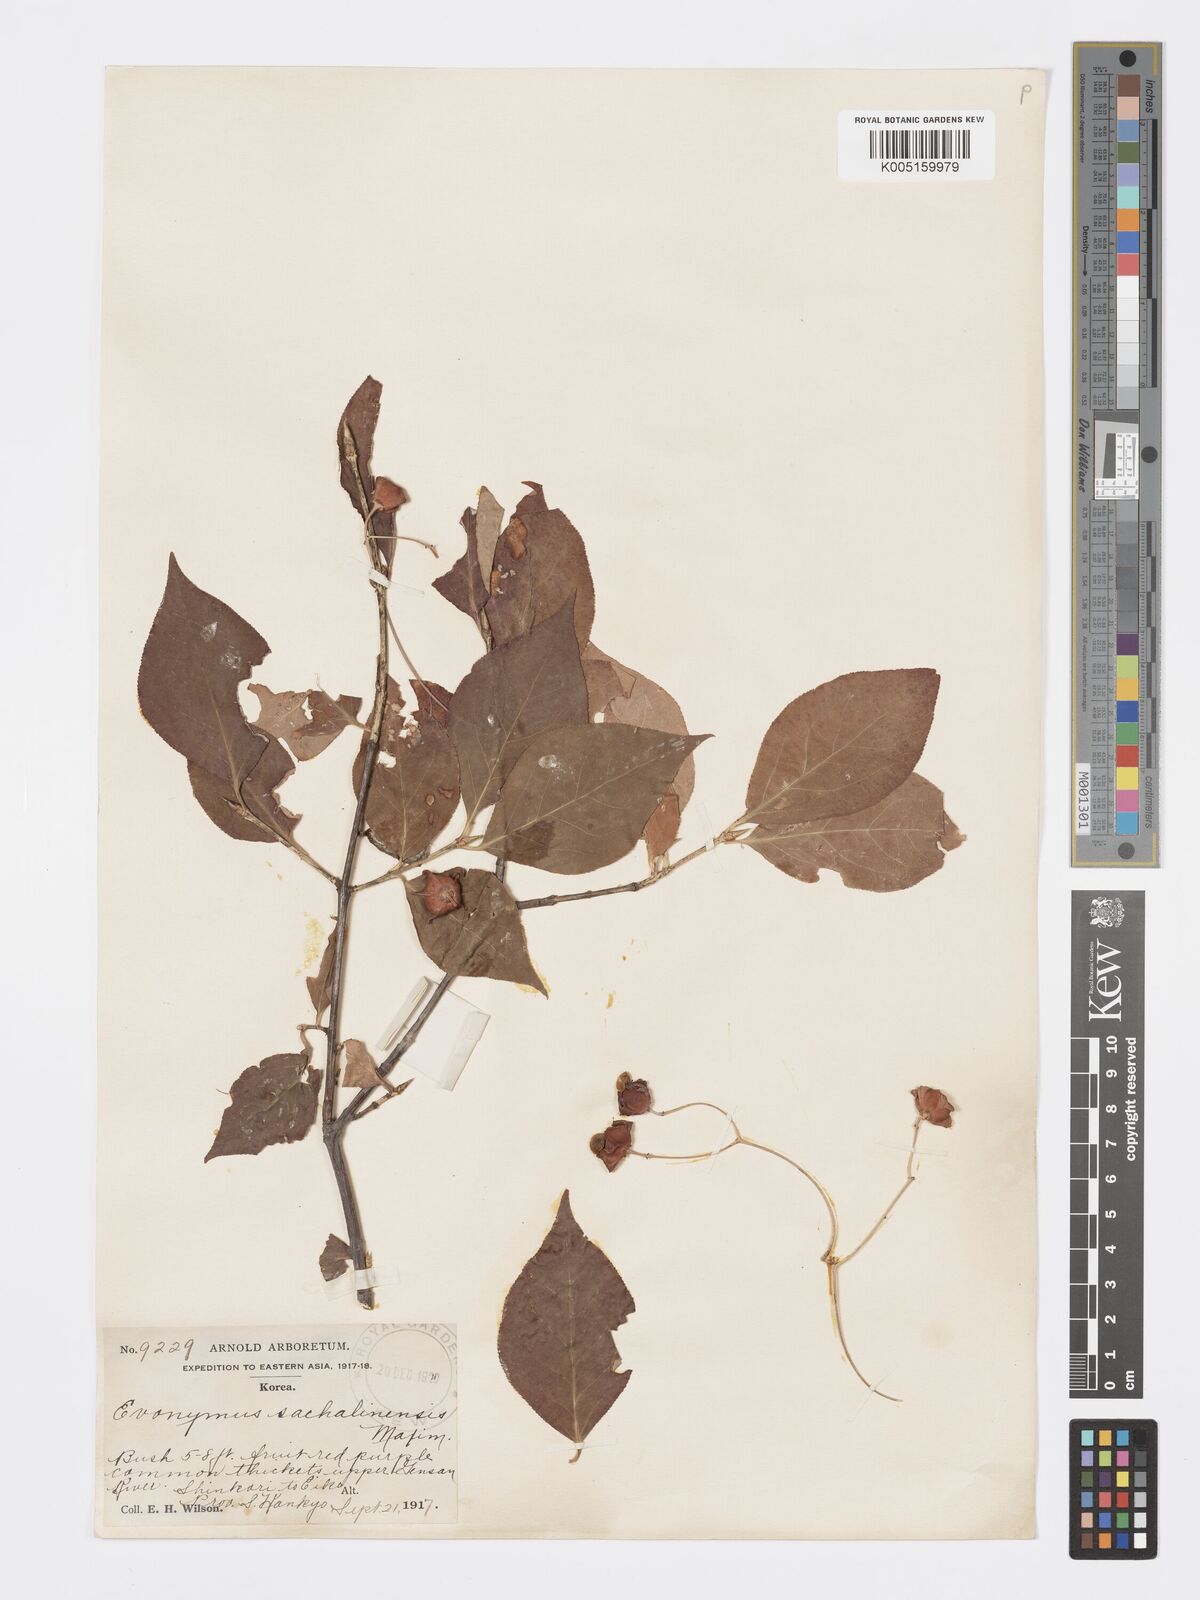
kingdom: Plantae
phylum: Tracheophyta
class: Magnoliopsida
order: Celastrales
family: Celastraceae
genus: Euonymus
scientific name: Euonymus sachalinensis
